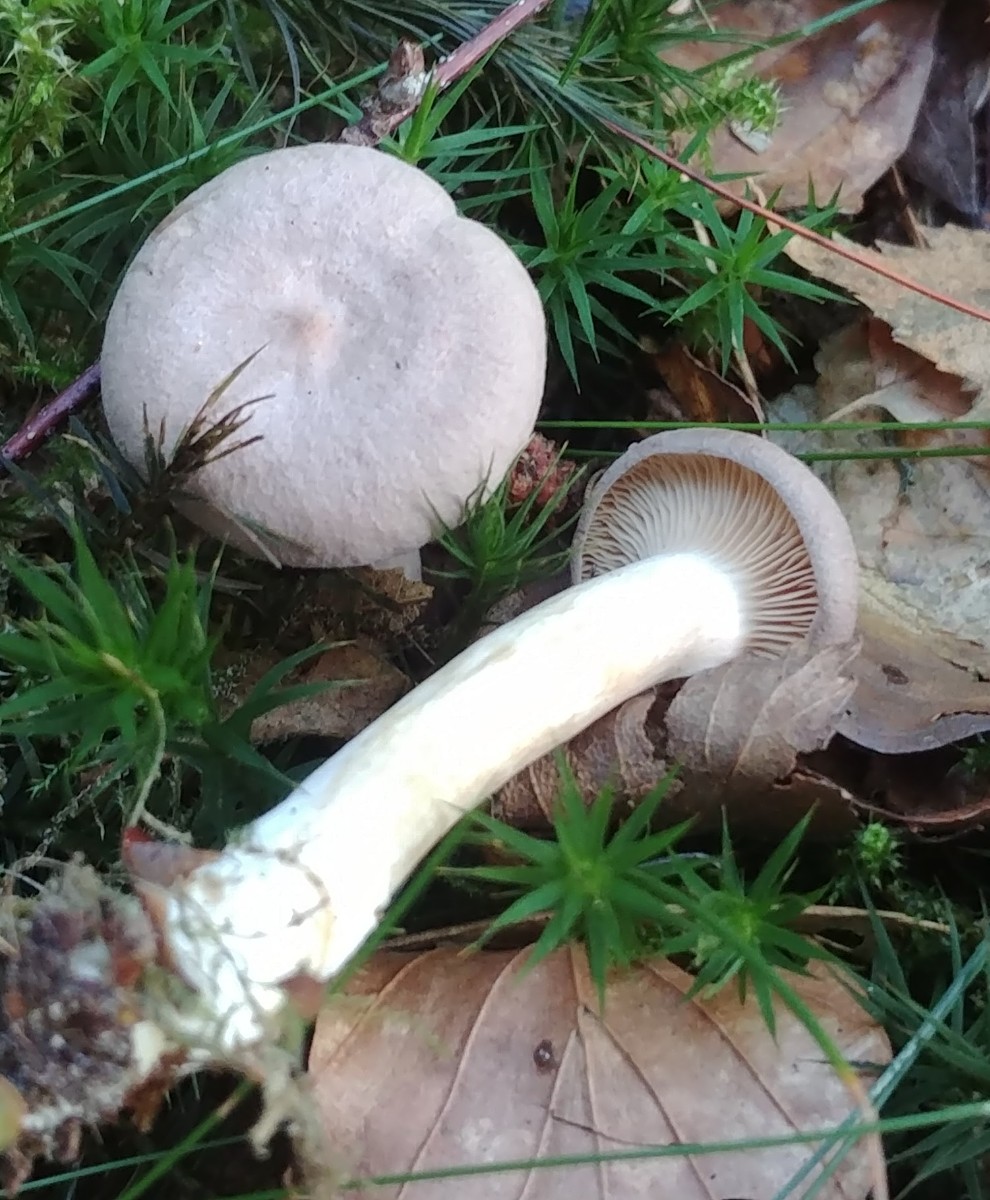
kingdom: Fungi
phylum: Basidiomycota
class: Agaricomycetes
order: Russulales
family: Russulaceae
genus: Lactarius
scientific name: Lactarius glyciosmus
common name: kokos-mælkehat
